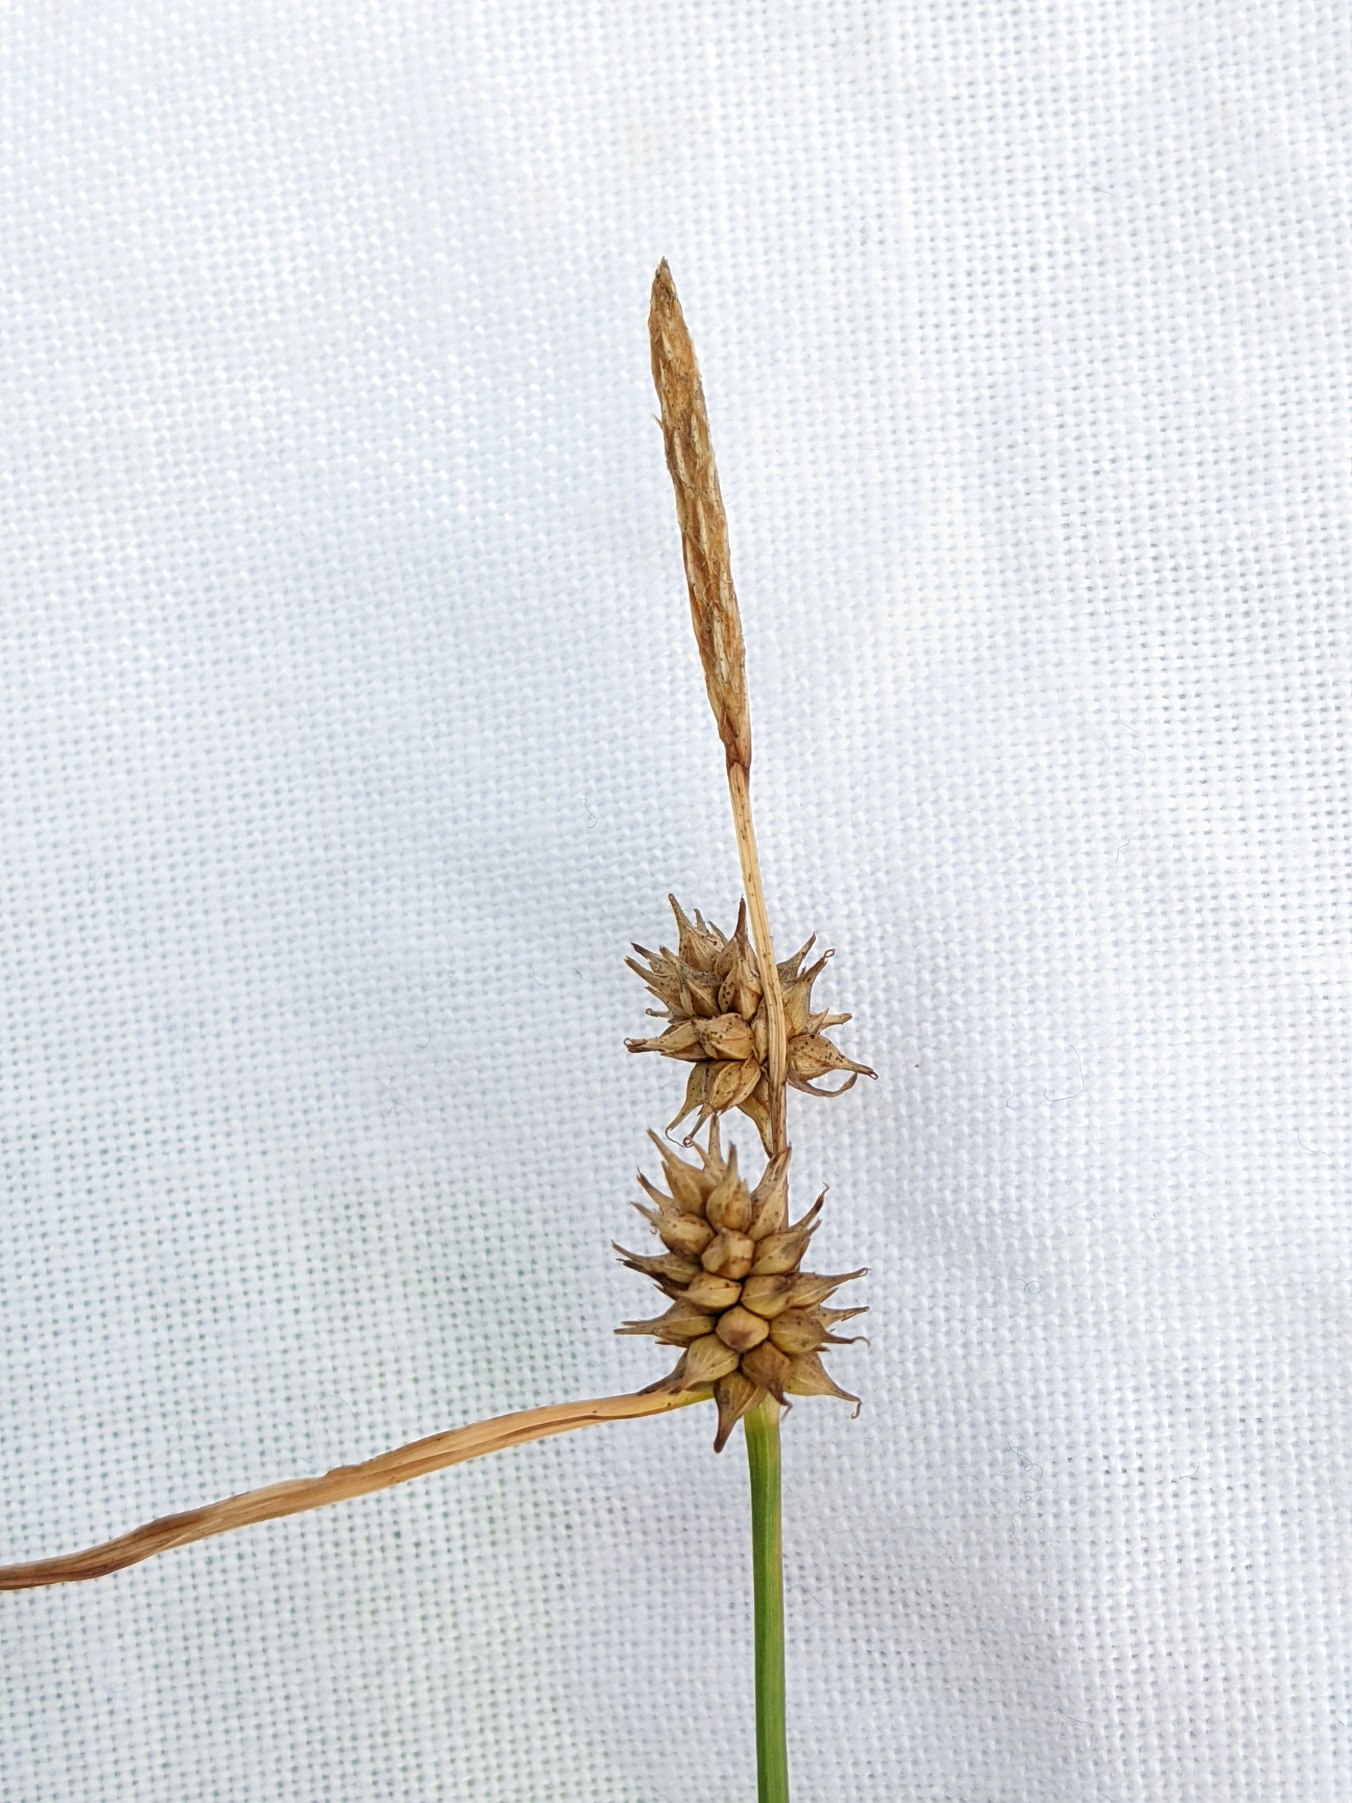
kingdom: Plantae
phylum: Tracheophyta
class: Liliopsida
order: Poales
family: Cyperaceae
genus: Carex
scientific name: Carex
